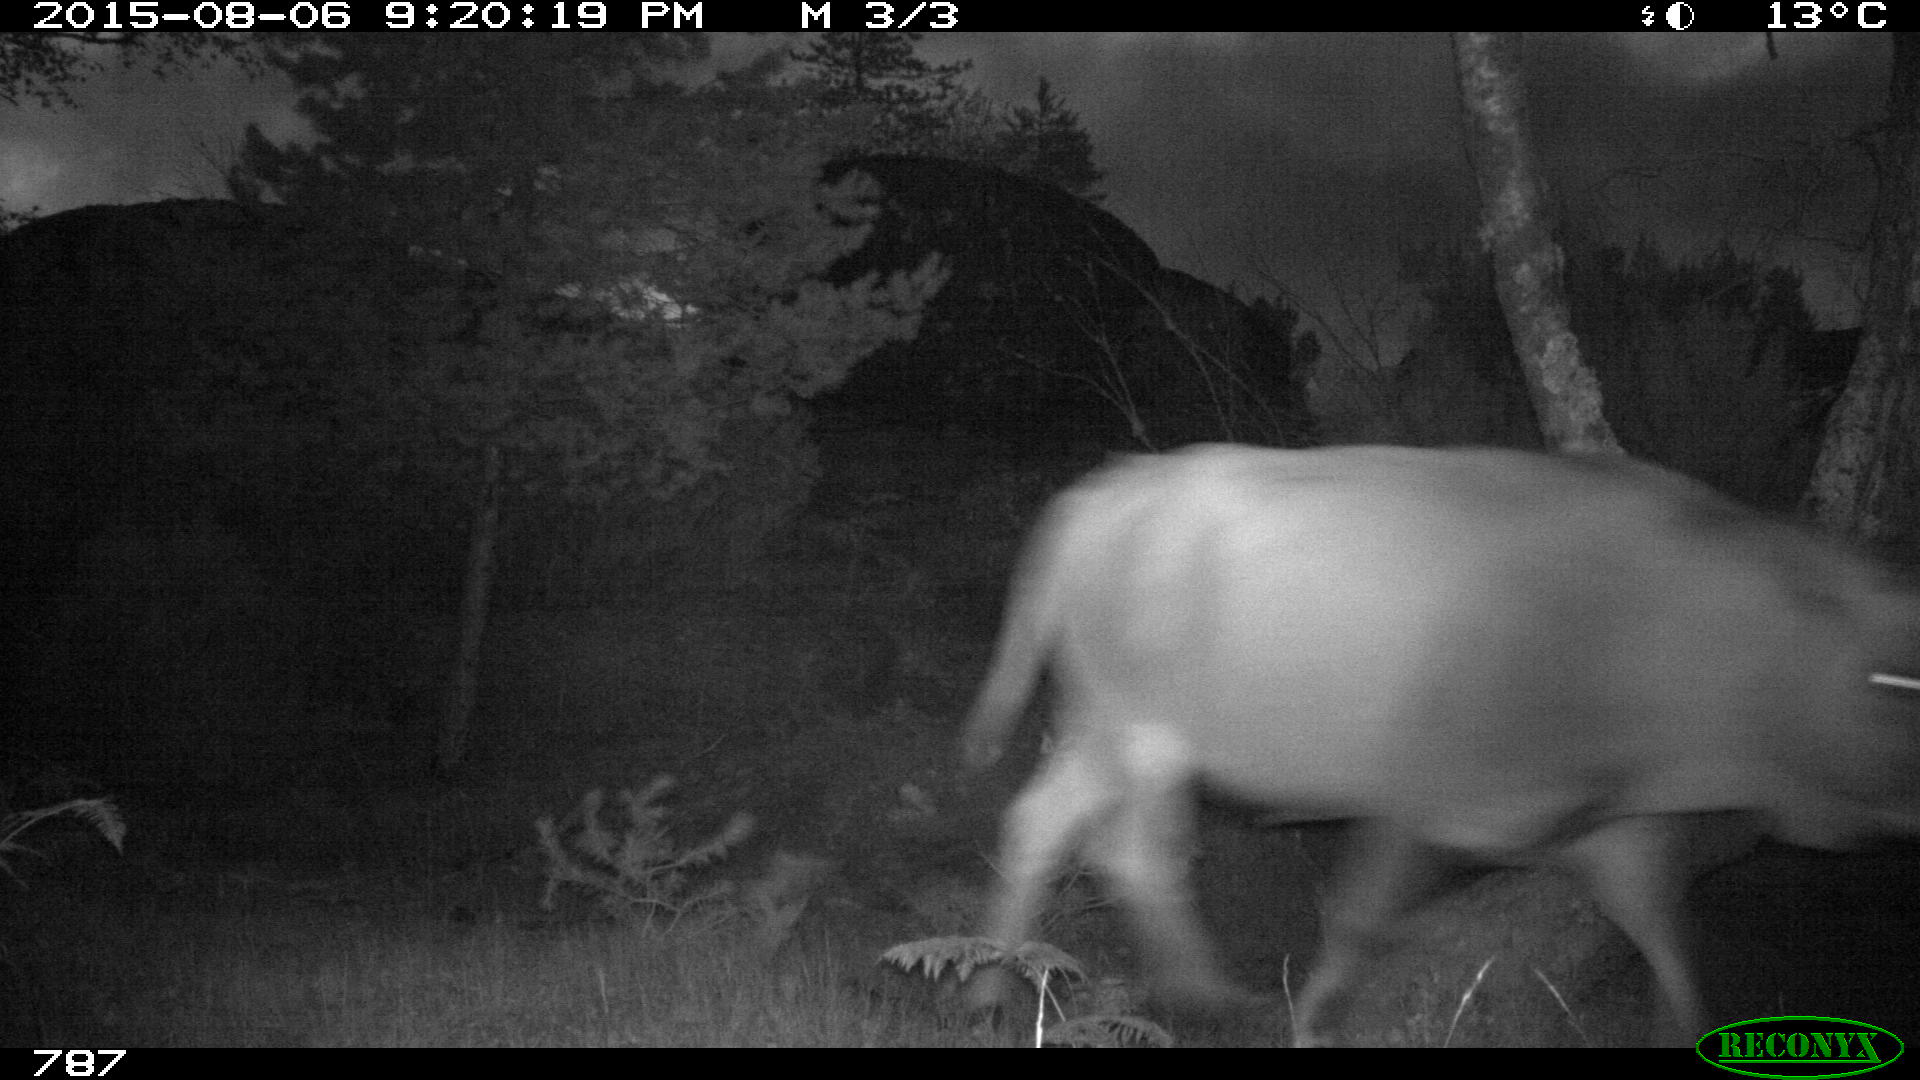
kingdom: Animalia
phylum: Chordata
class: Mammalia
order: Artiodactyla
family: Bovidae
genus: Bos
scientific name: Bos taurus
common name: Domesticated cattle
